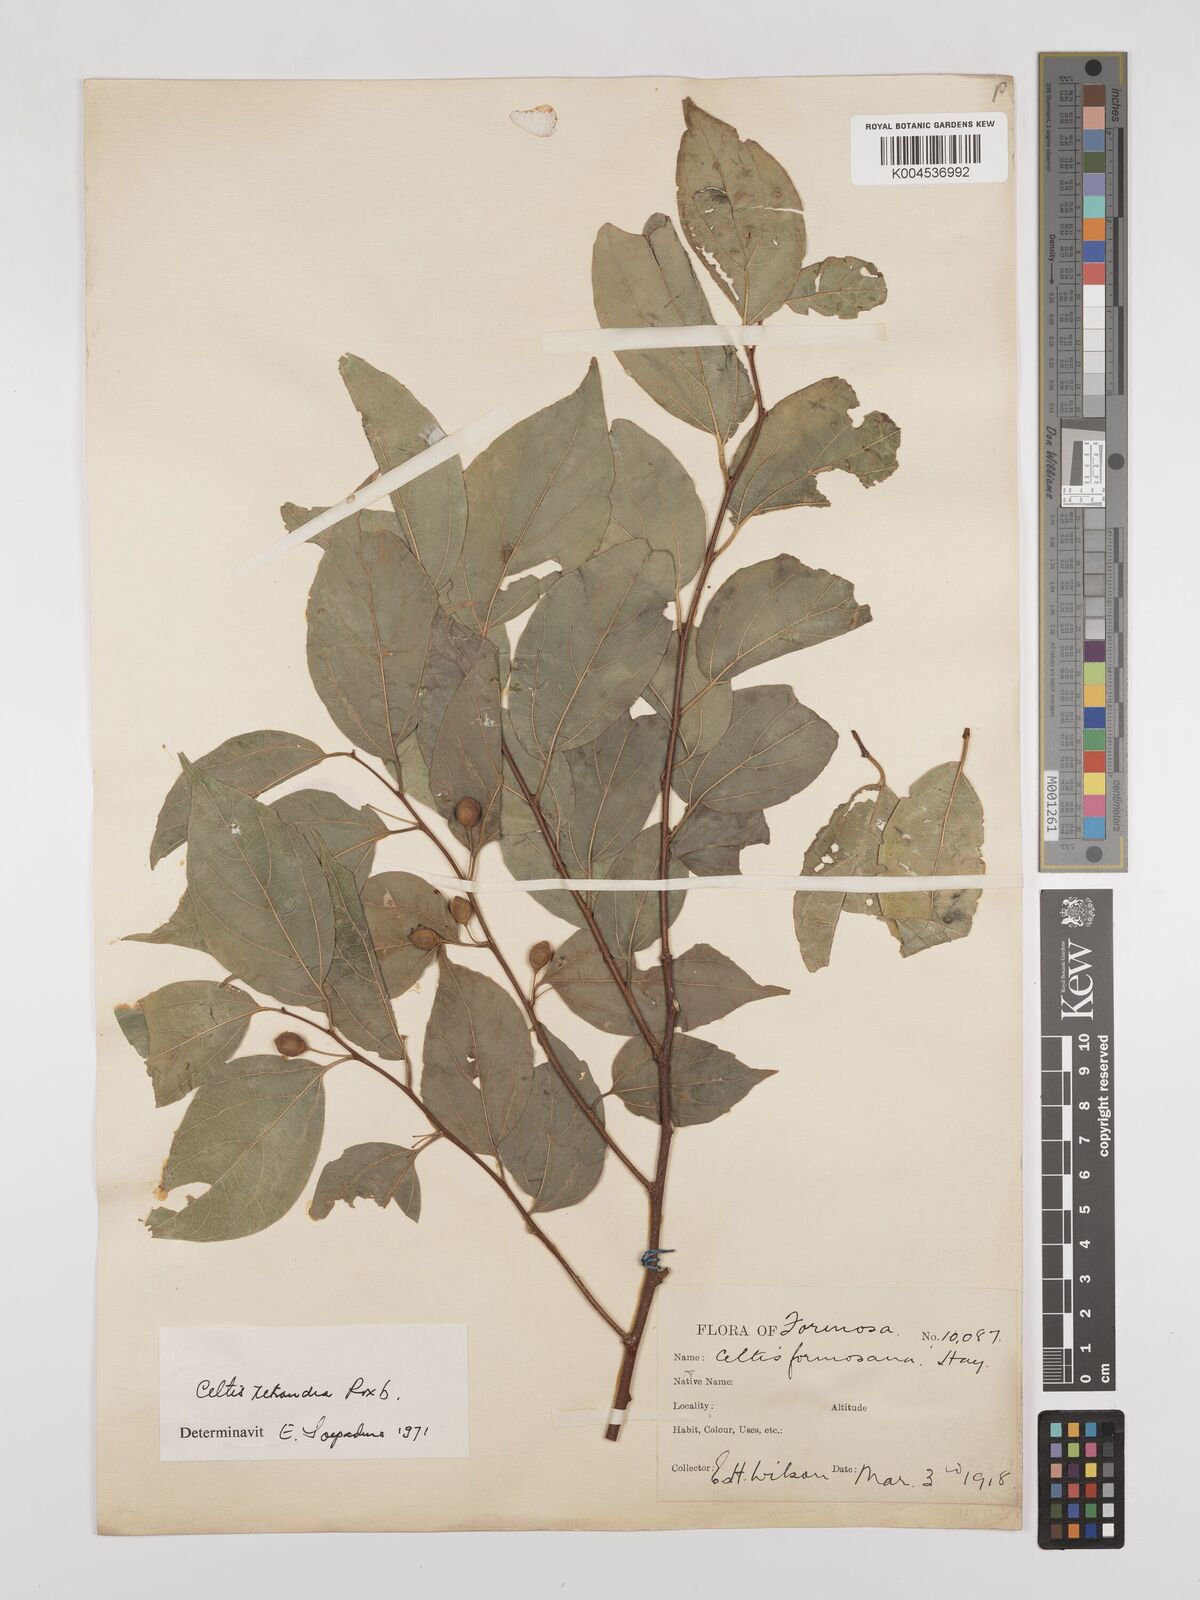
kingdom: Plantae
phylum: Tracheophyta
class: Magnoliopsida
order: Rosales
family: Cannabaceae
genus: Celtis
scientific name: Celtis tetrandra
